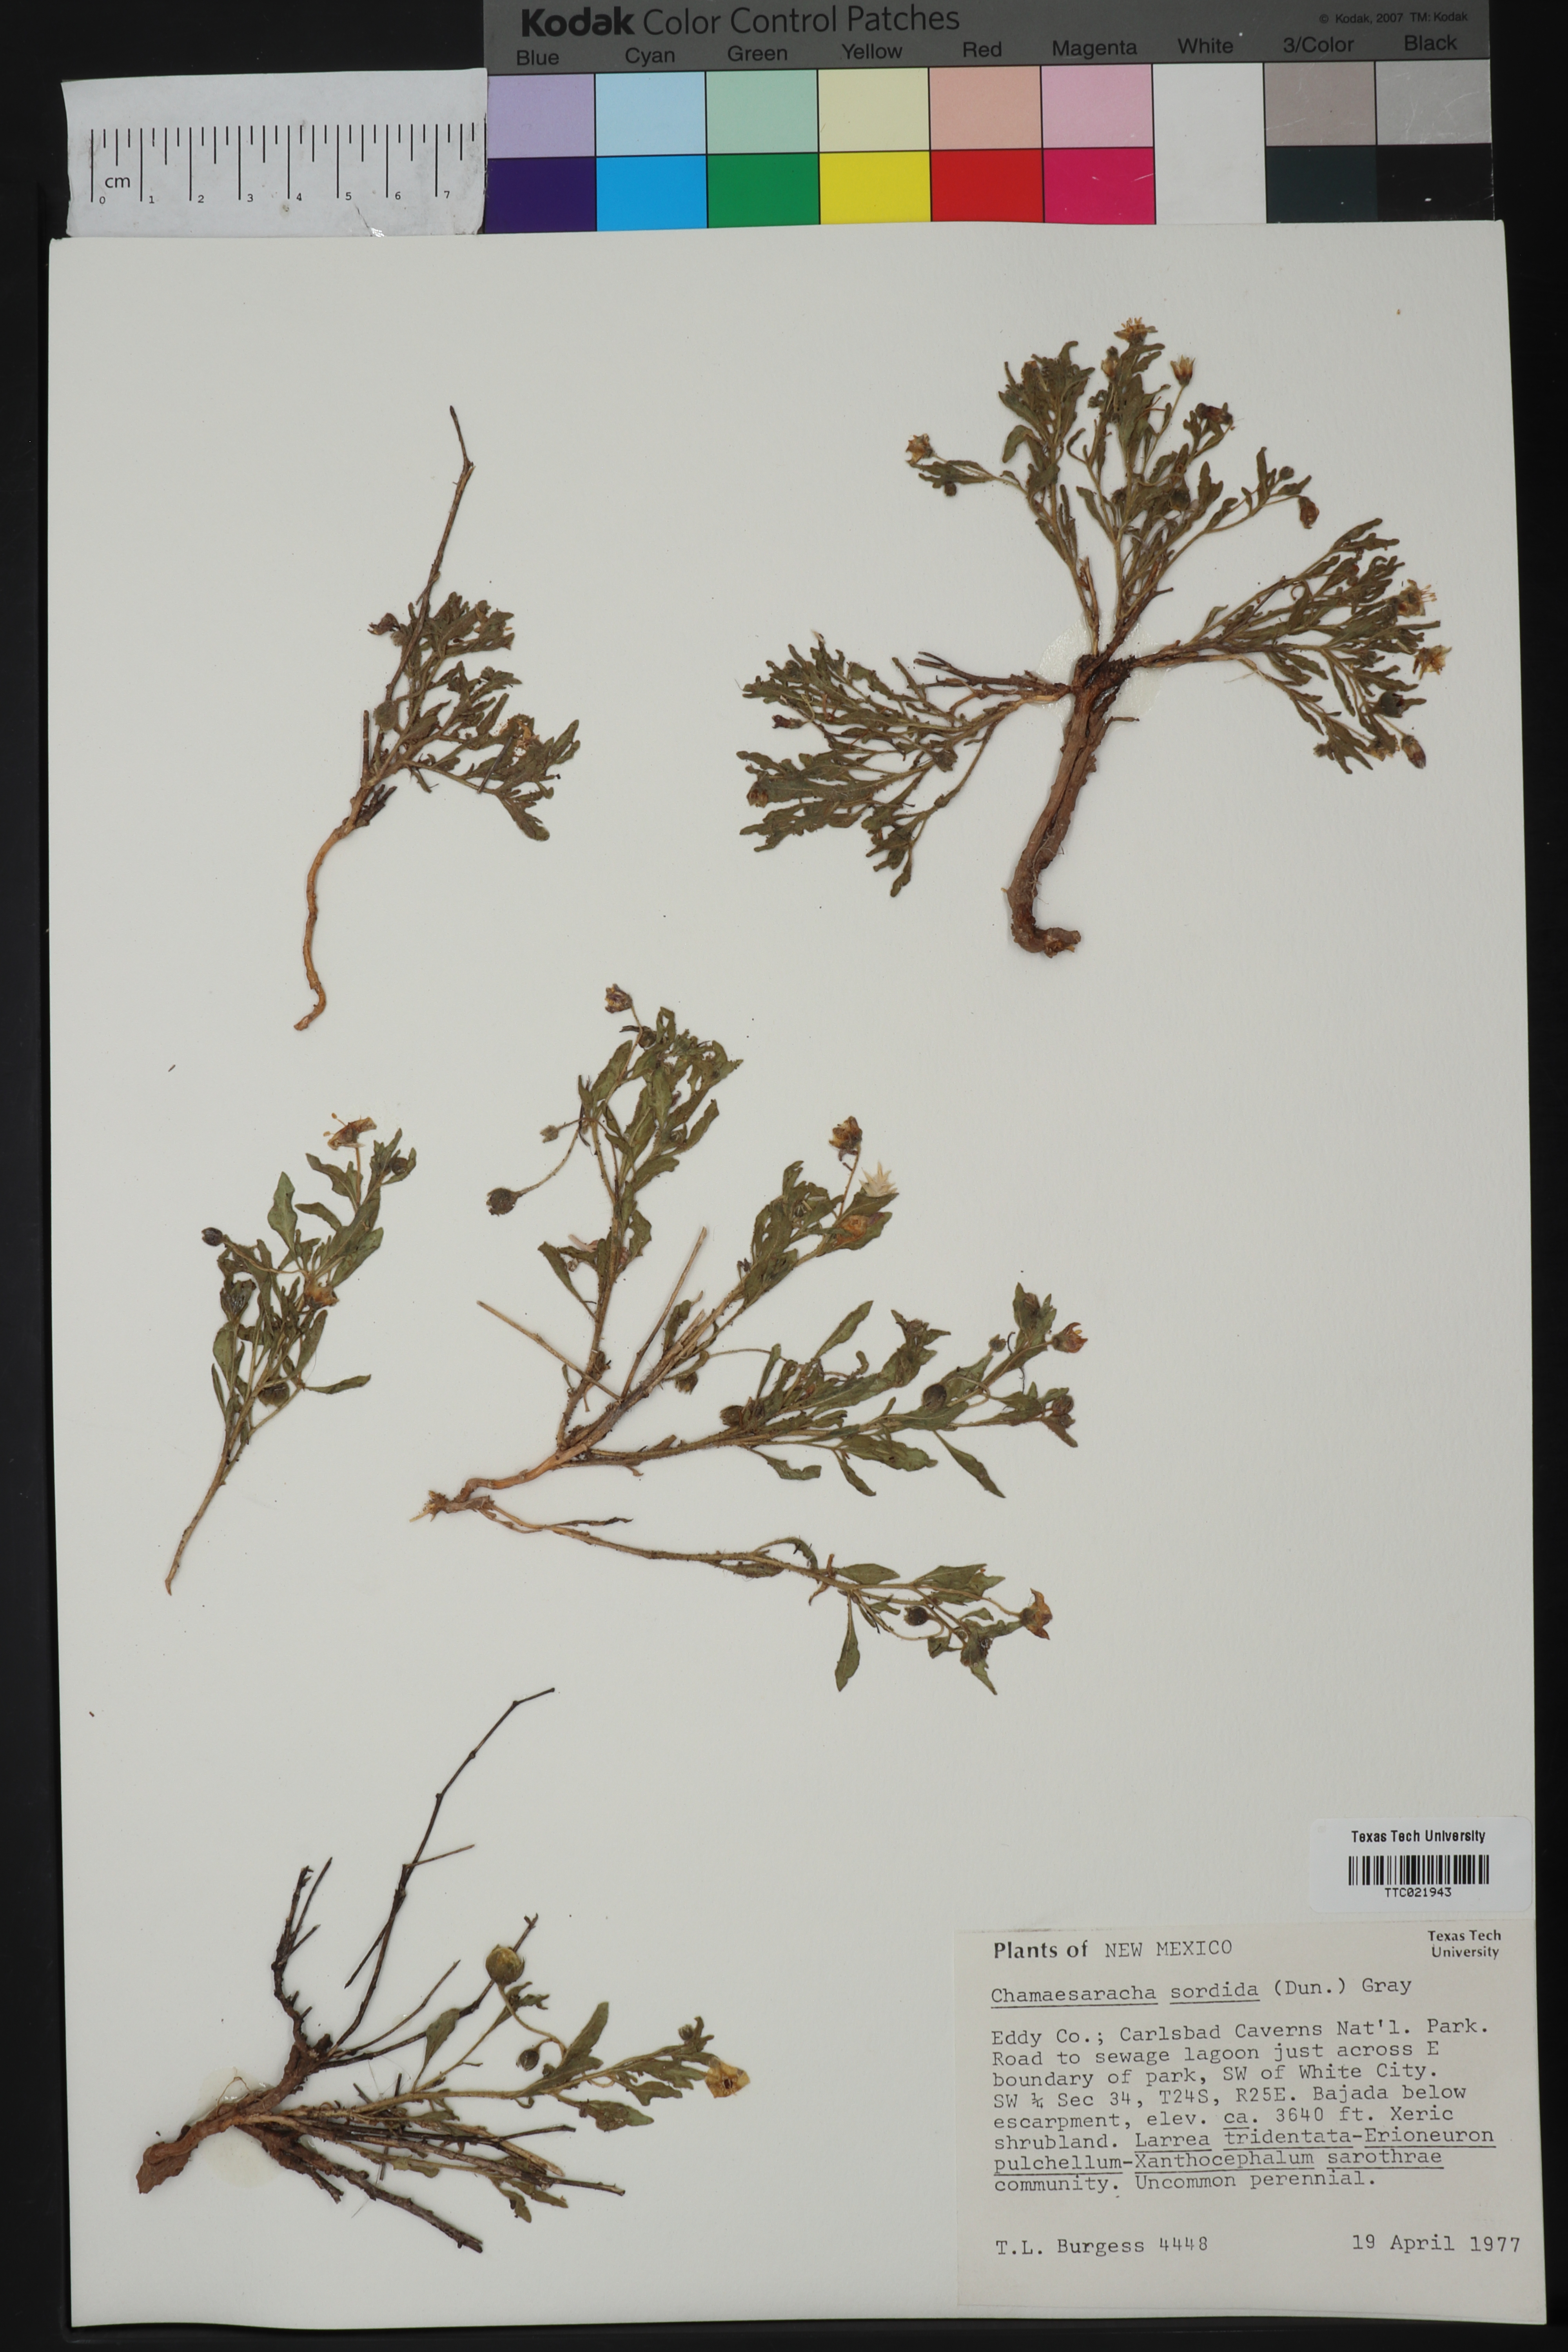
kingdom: Plantae
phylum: Tracheophyta
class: Magnoliopsida
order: Solanales
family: Solanaceae
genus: Chamaesaracha
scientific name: Chamaesaracha sordida
